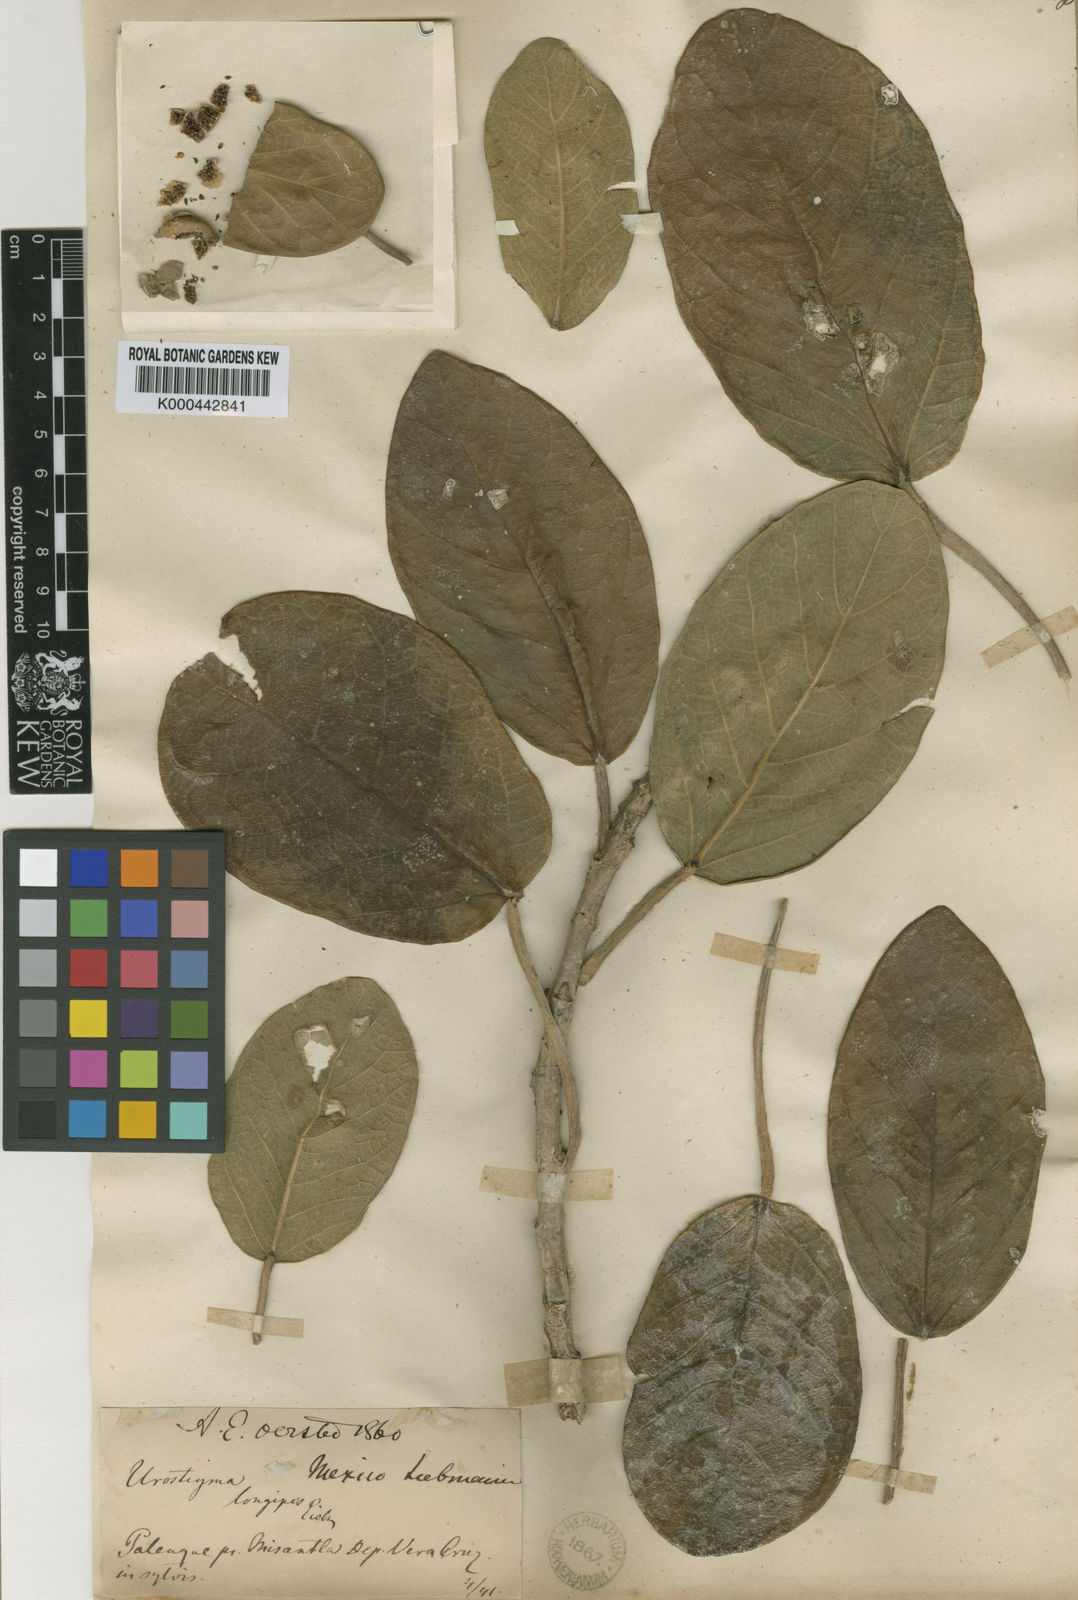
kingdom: Plantae
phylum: Tracheophyta
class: Magnoliopsida
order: Rosales
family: Moraceae
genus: Ficus
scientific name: Ficus cotinifolia
